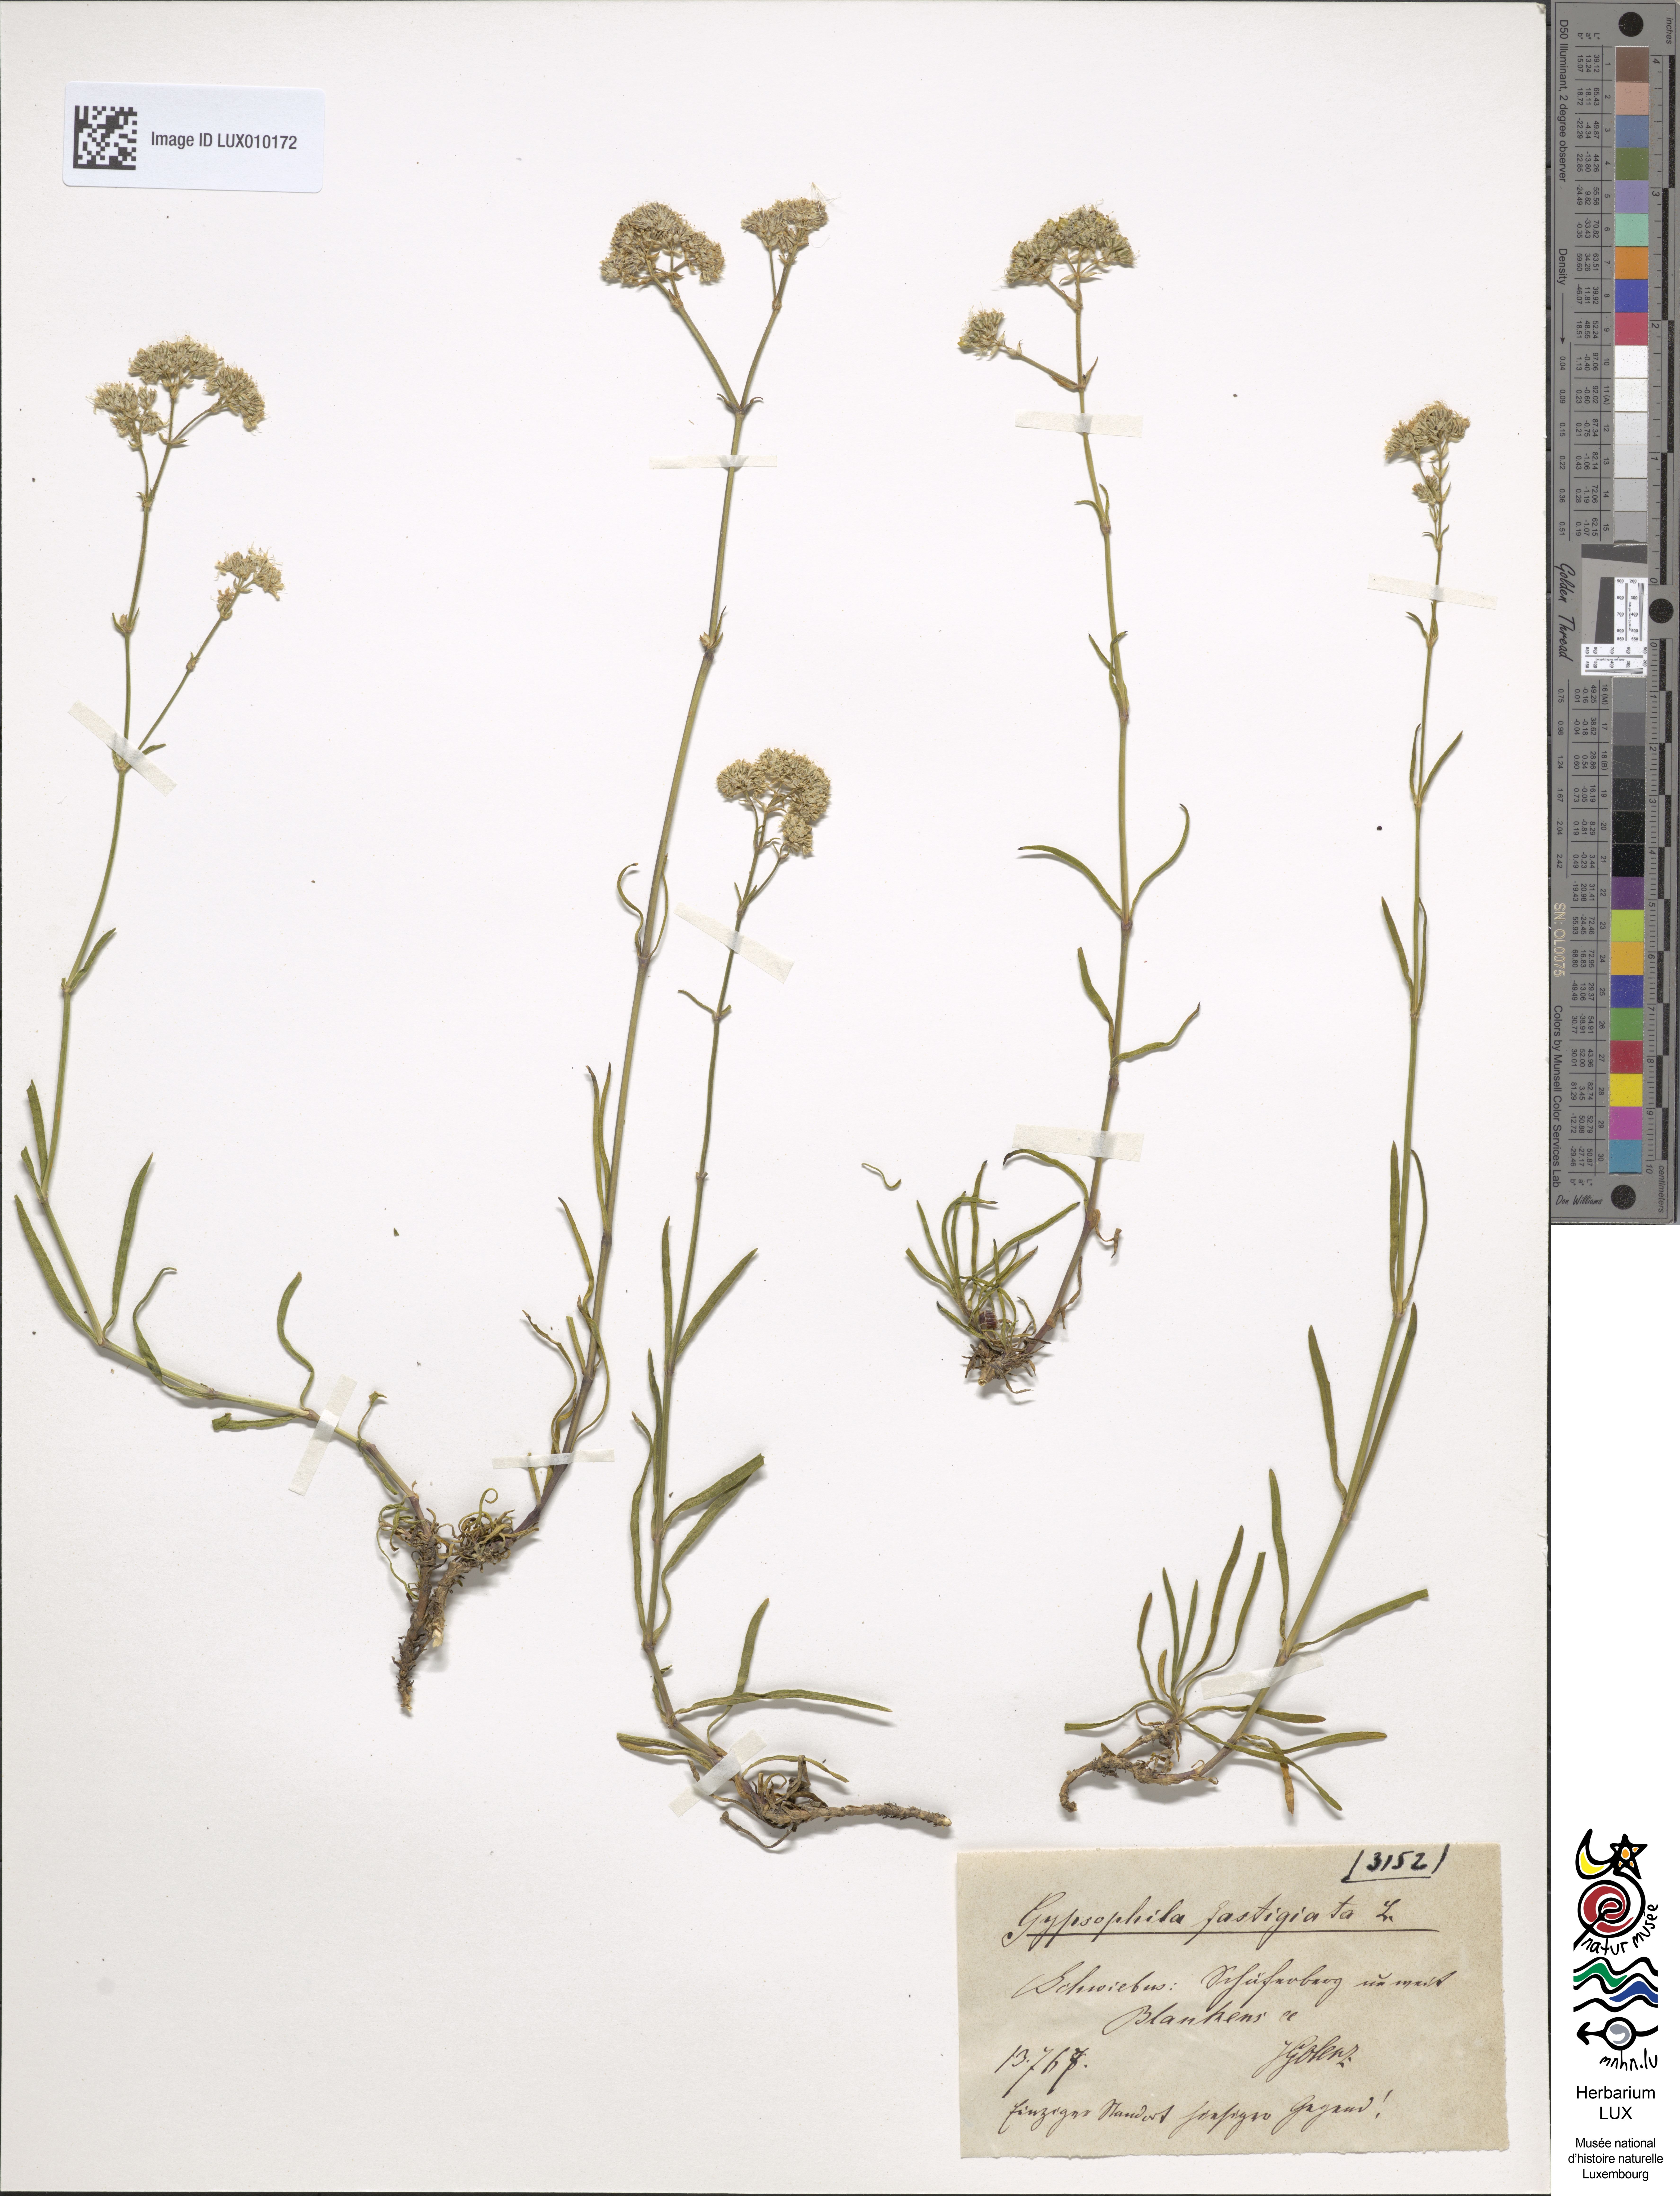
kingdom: Plantae
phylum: Tracheophyta
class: Magnoliopsida
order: Caryophyllales
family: Caryophyllaceae
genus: Gypsophila
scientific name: Gypsophila fastigiata
